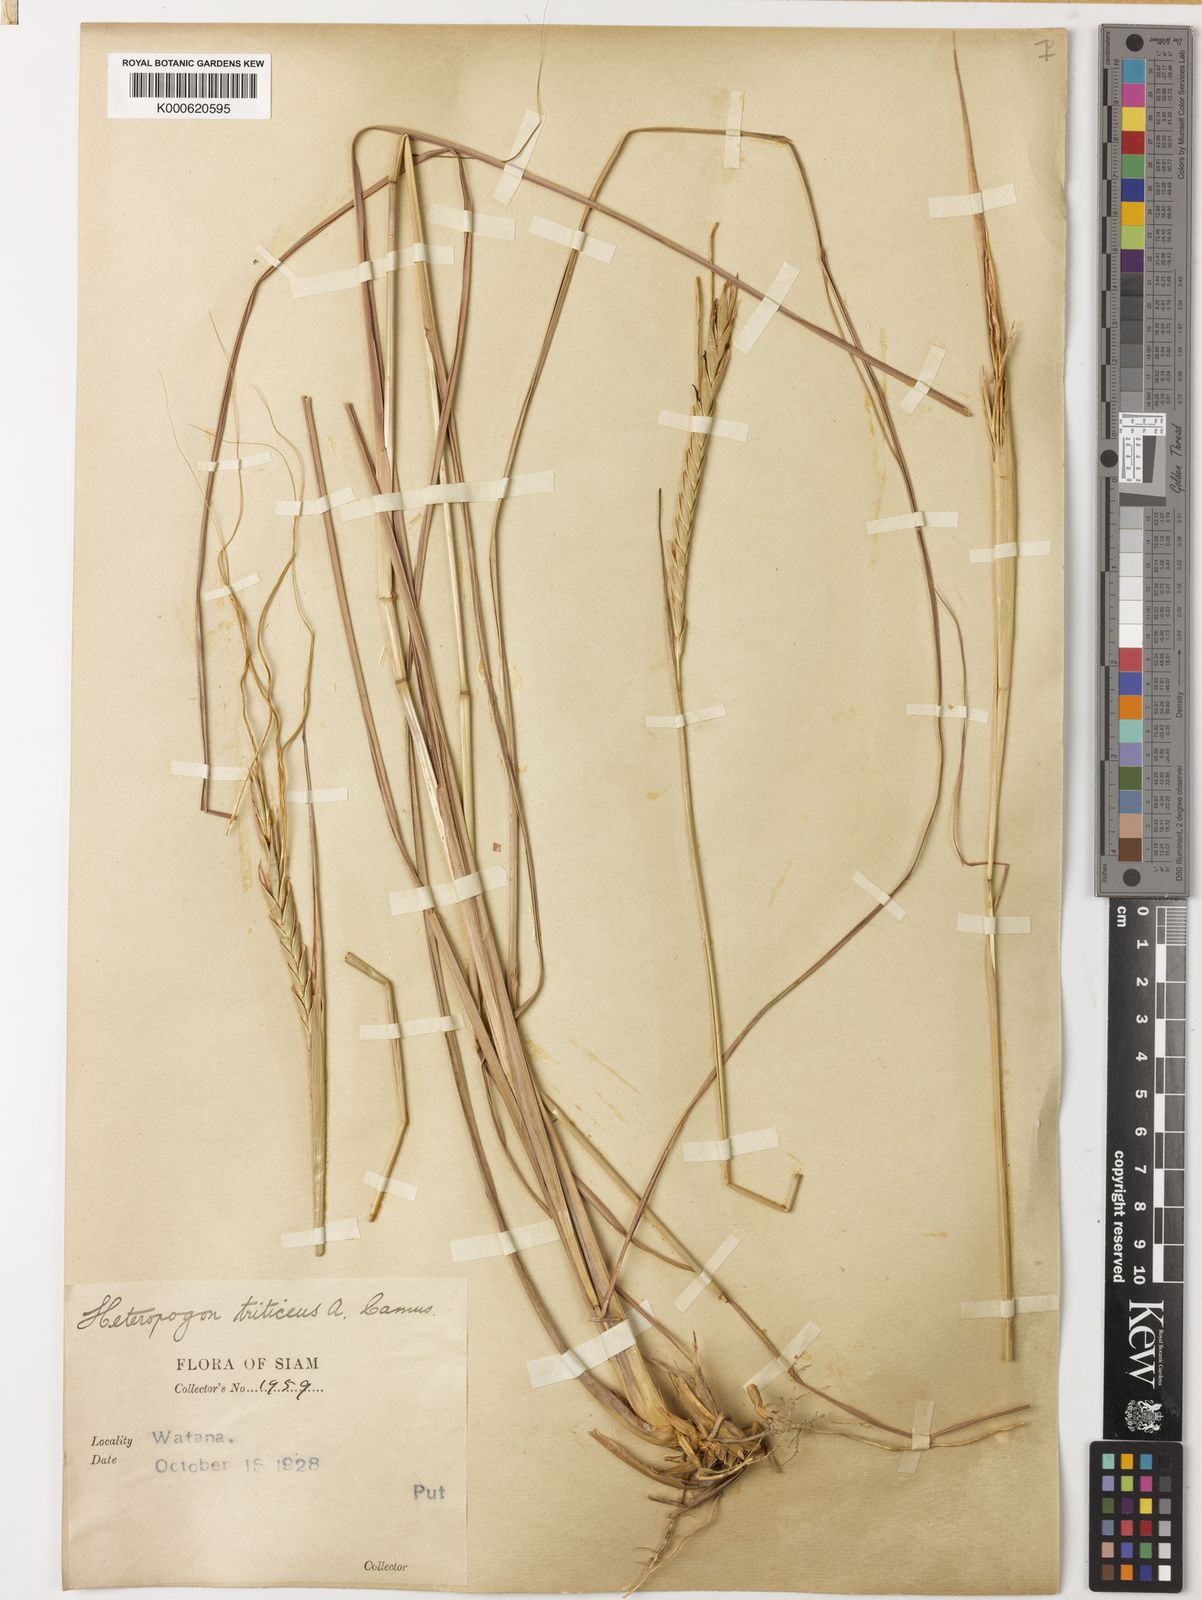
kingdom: Plantae
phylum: Tracheophyta
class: Liliopsida
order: Poales
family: Poaceae
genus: Heteropogon
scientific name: Heteropogon triticeus
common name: Sugar grass
